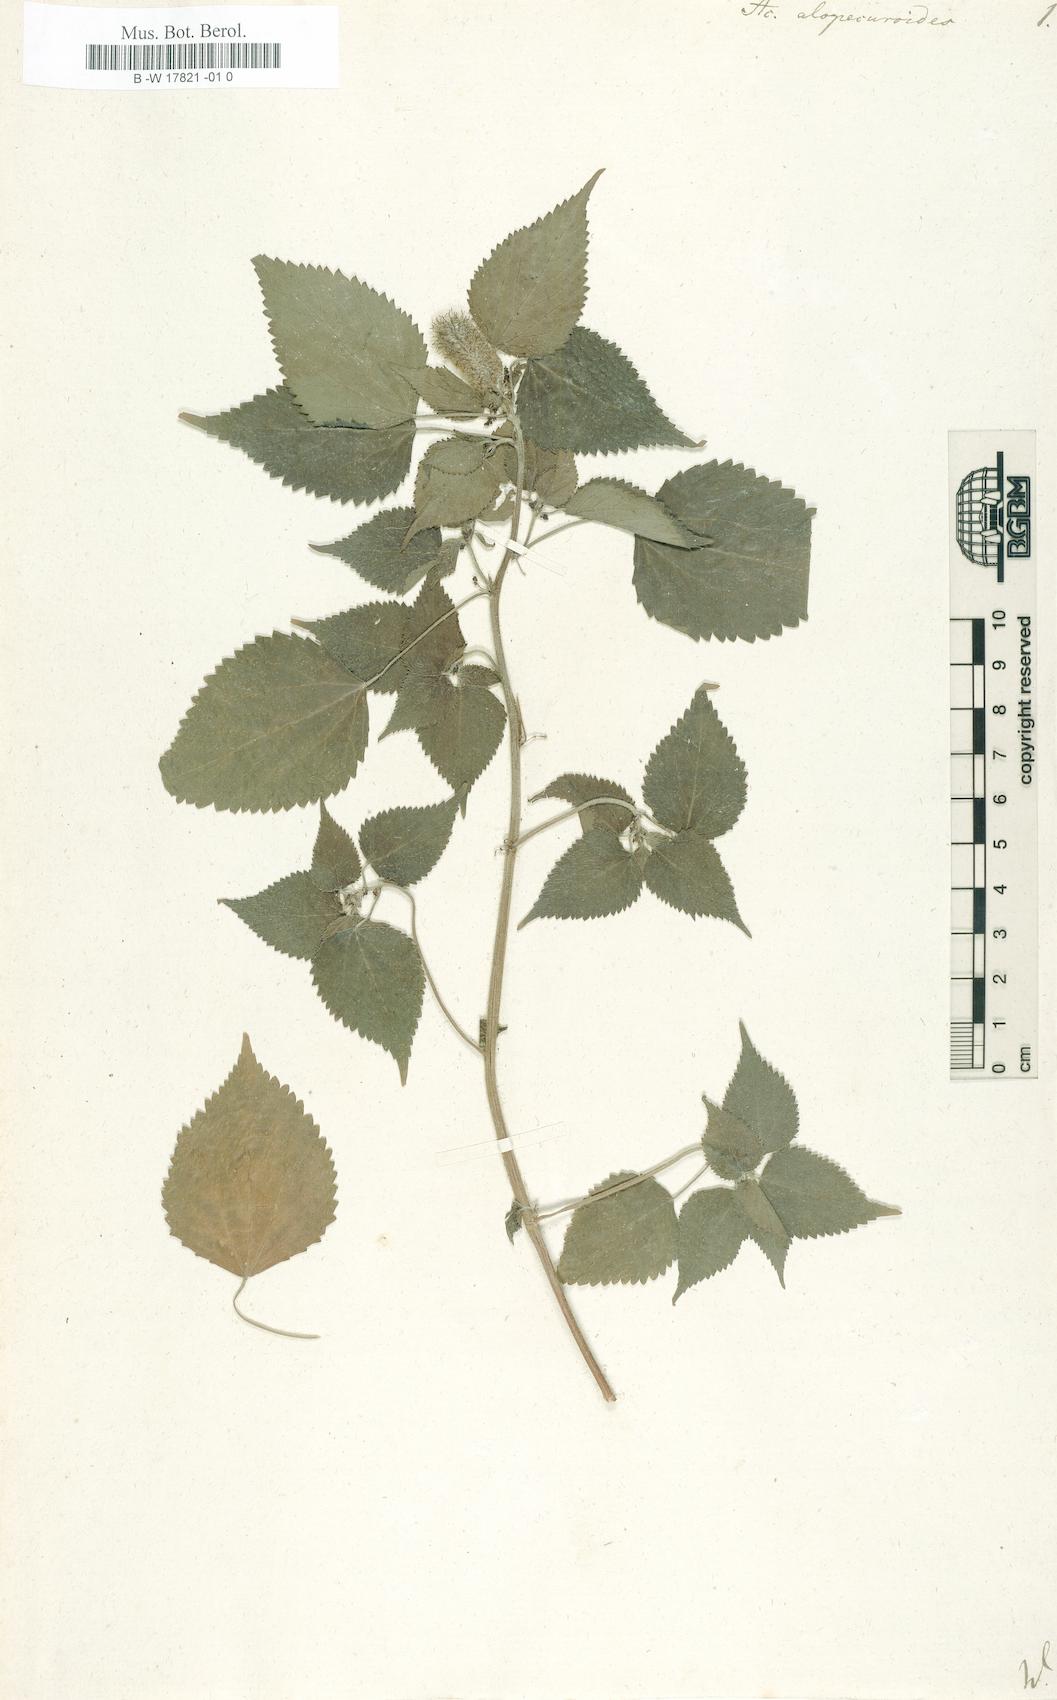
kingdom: Plantae
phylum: Tracheophyta
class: Magnoliopsida
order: Malpighiales
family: Euphorbiaceae
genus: Acalypha
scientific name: Acalypha alopecuroidea
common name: Foxtail copperleaf
